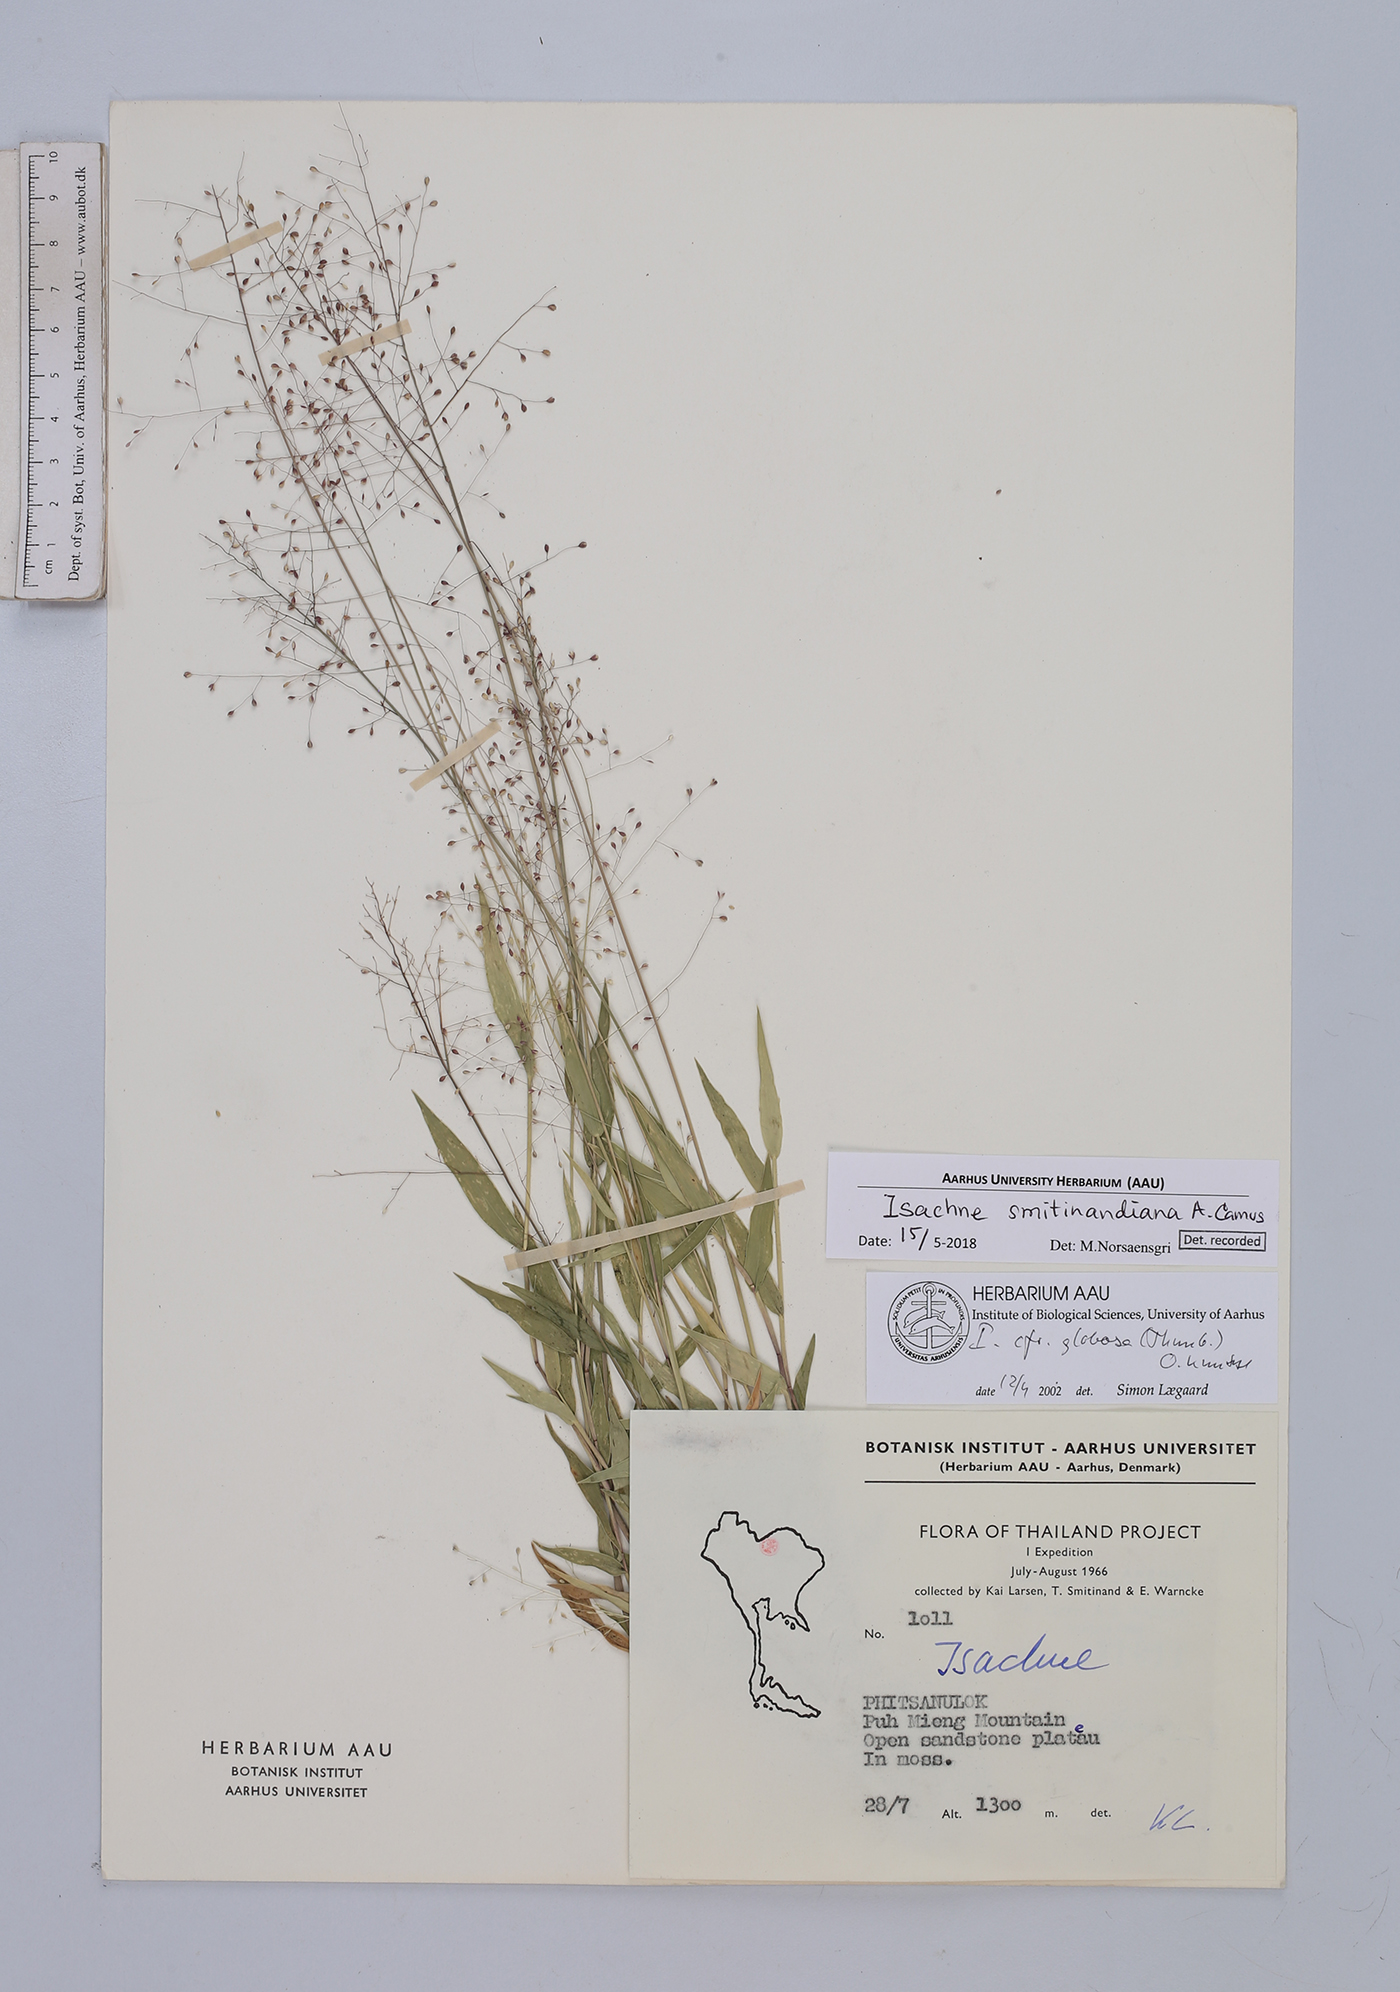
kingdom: Plantae
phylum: Tracheophyta
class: Liliopsida
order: Poales
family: Poaceae
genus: Isachne
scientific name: Isachne smitinandiana
